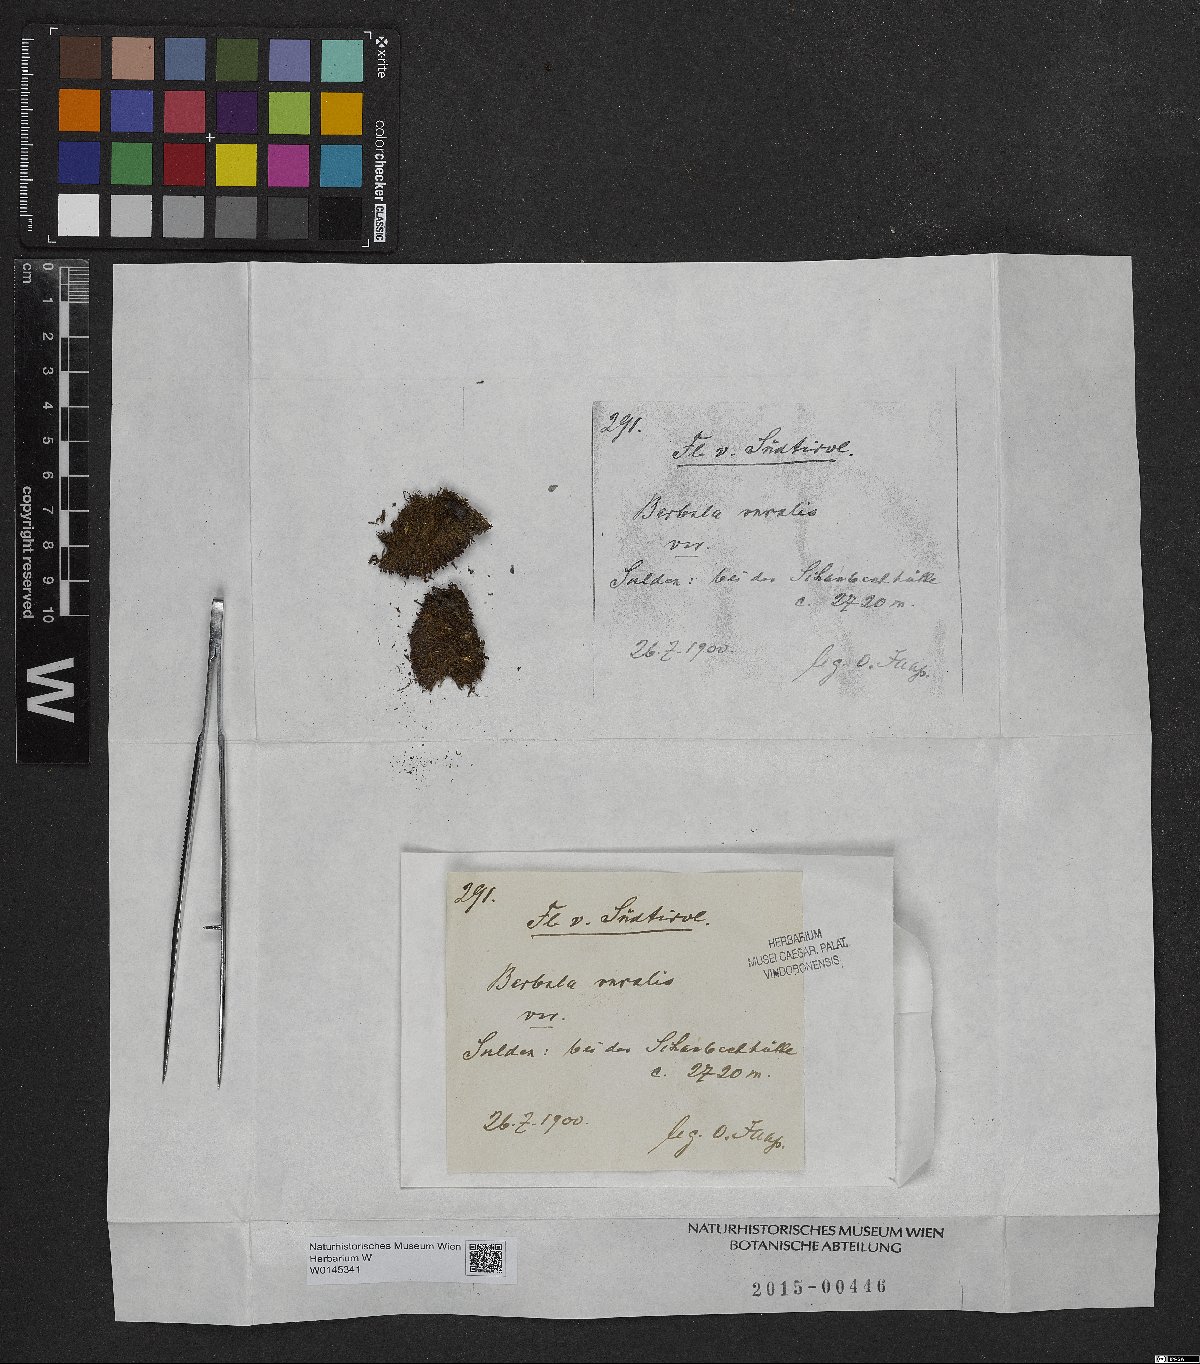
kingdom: Plantae
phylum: Bryophyta
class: Bryopsida
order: Pottiales
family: Pottiaceae
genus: Syntrichia
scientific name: Syntrichia ruralis
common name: Sidewalk screw moss
